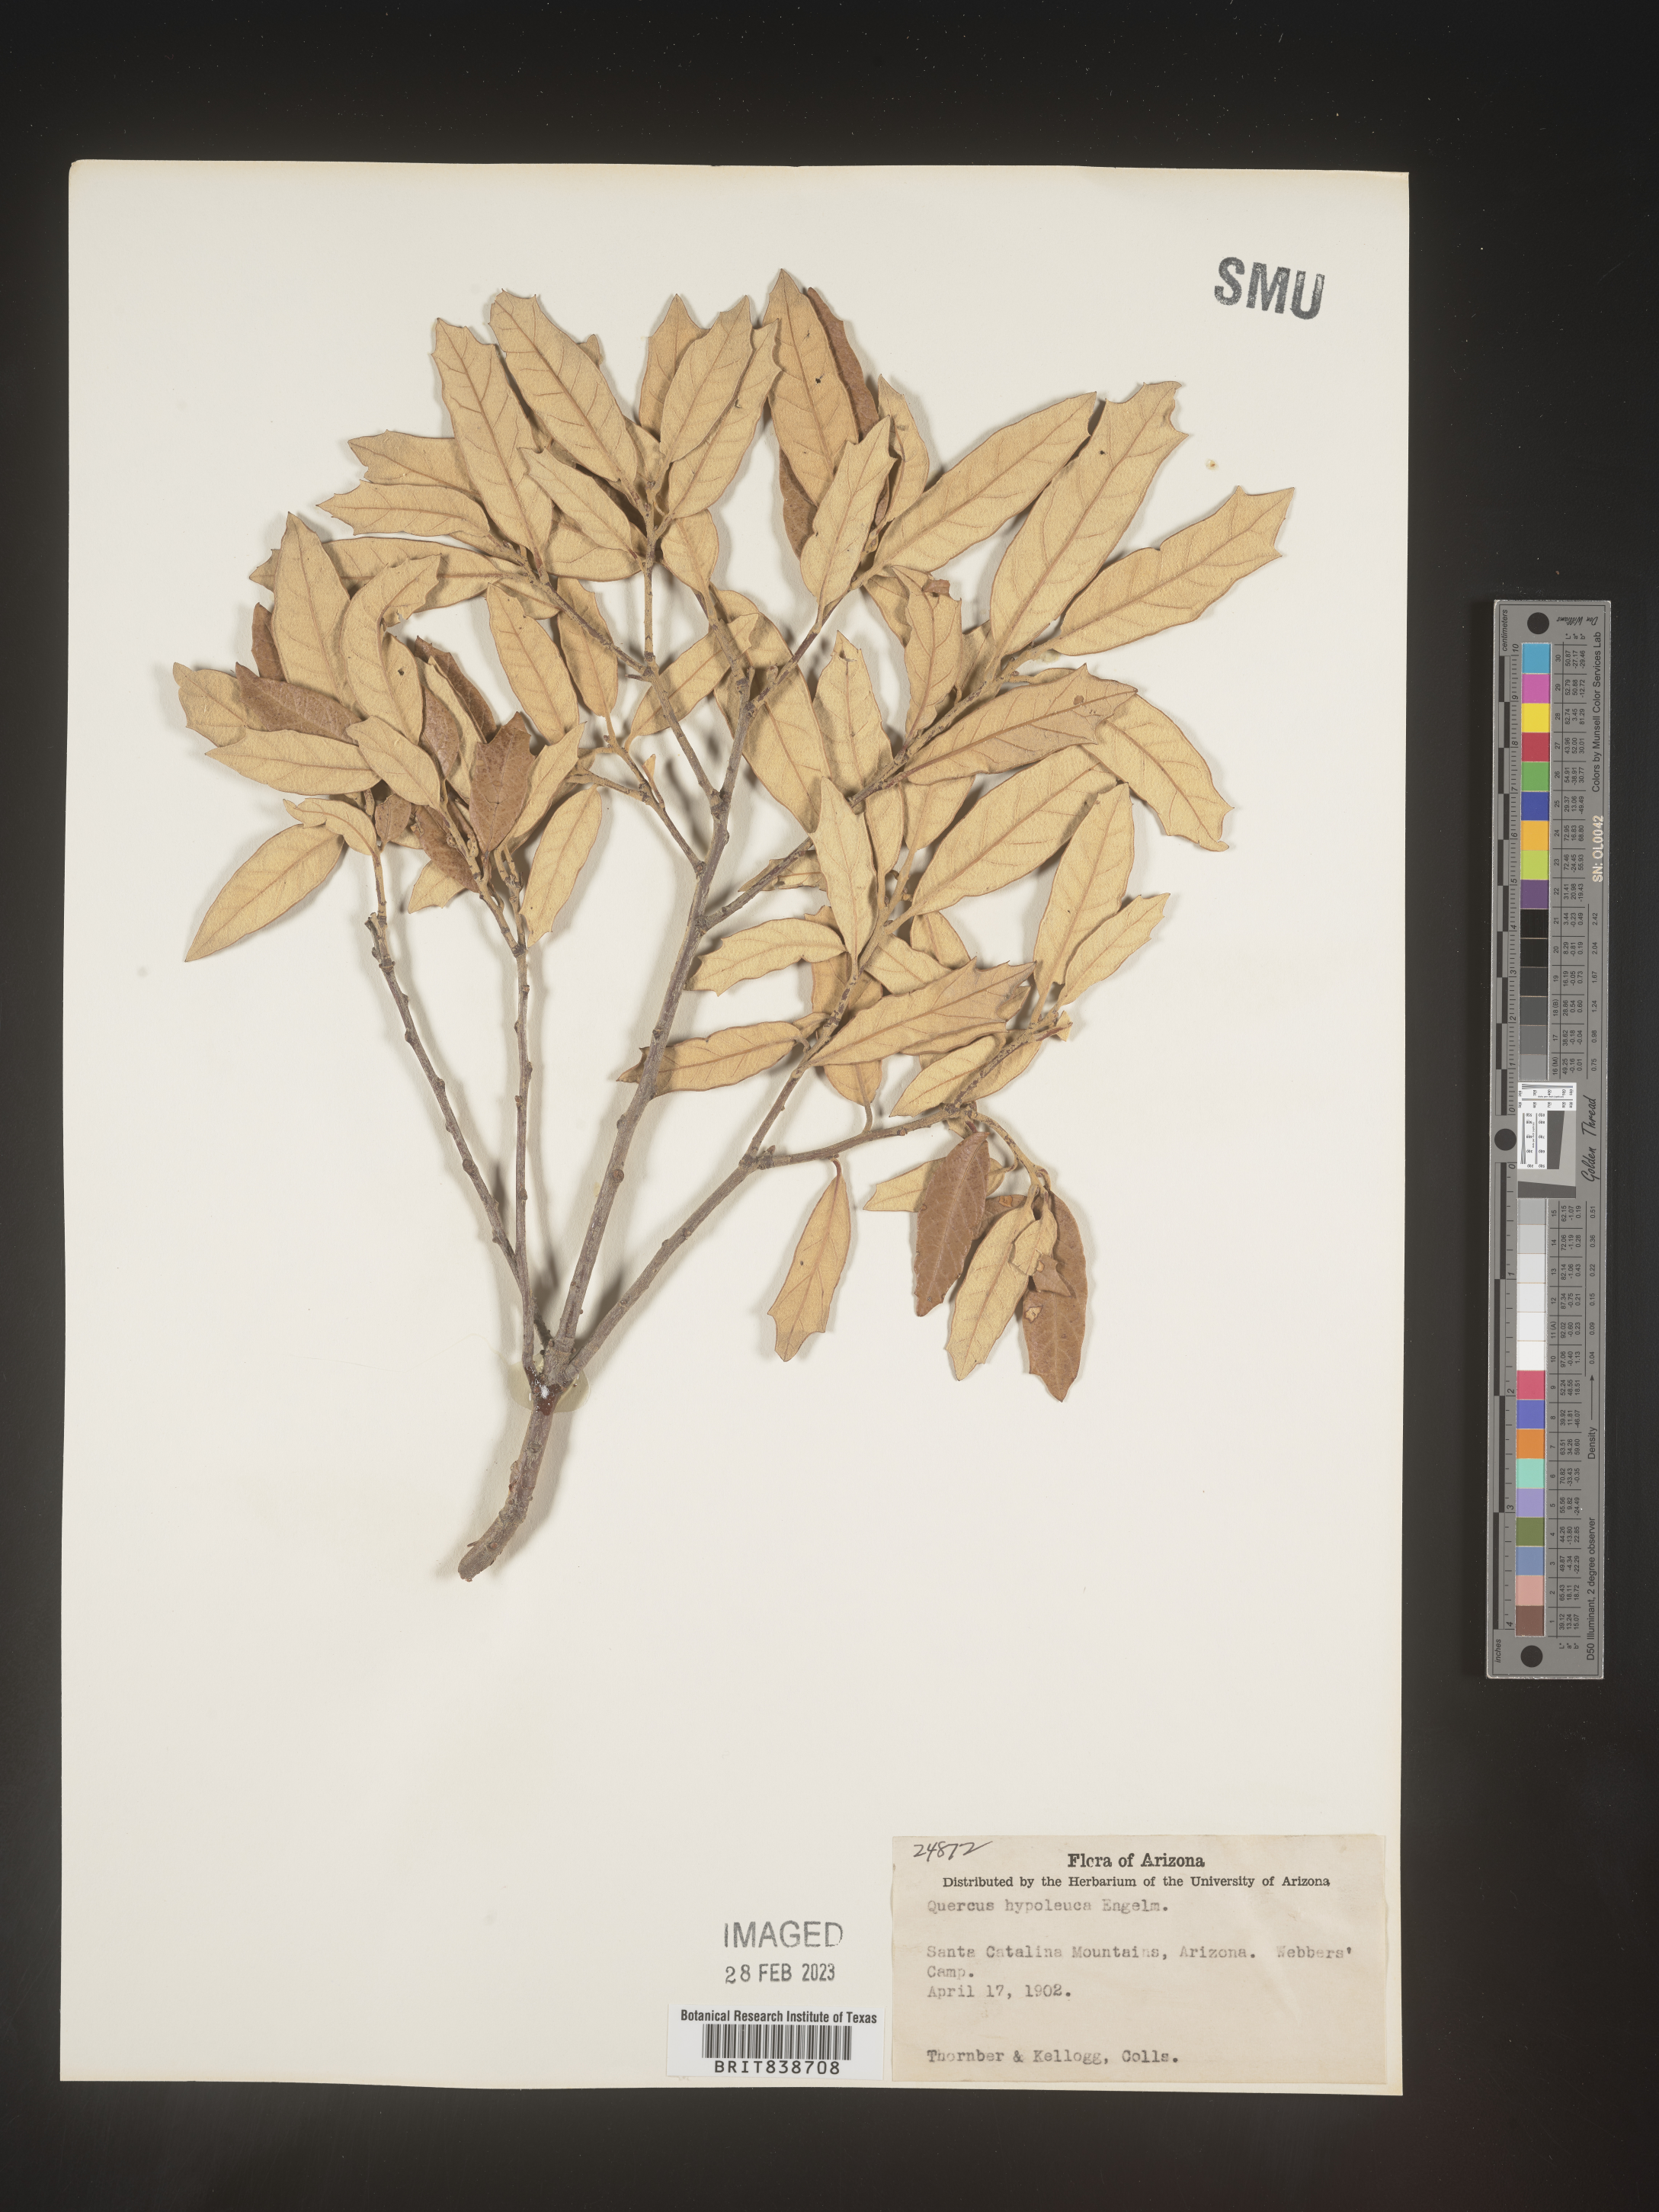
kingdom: Plantae
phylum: Tracheophyta
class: Magnoliopsida
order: Fagales
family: Fagaceae
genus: Quercus
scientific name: Quercus
